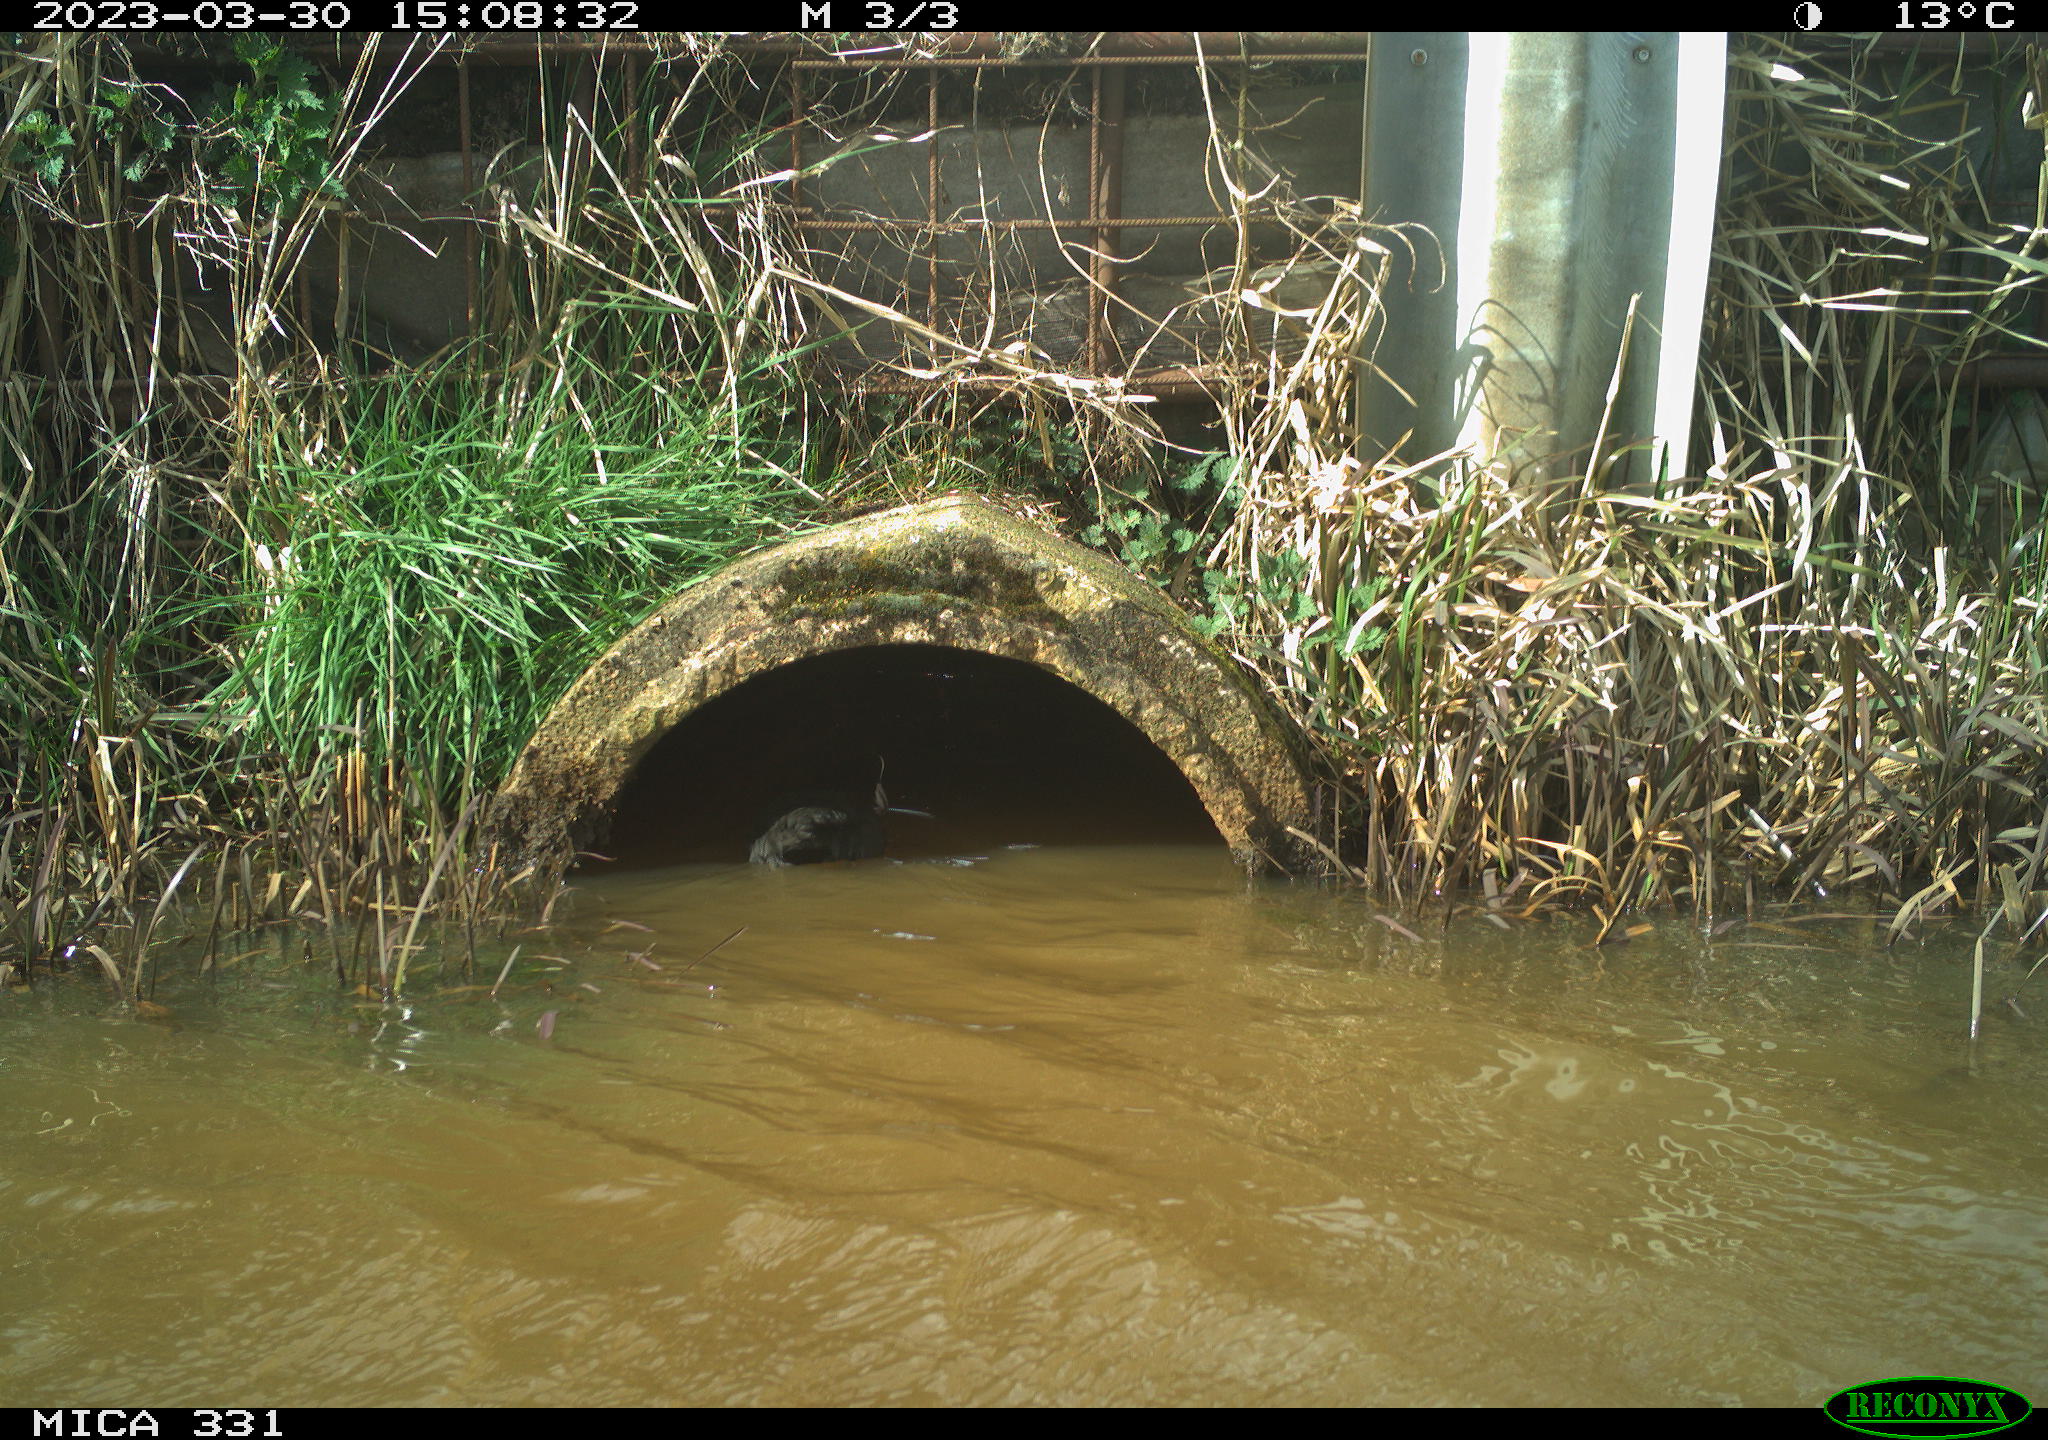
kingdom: Animalia
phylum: Chordata
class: Aves
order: Gruiformes
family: Rallidae
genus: Gallinula
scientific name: Gallinula chloropus
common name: Common moorhen
